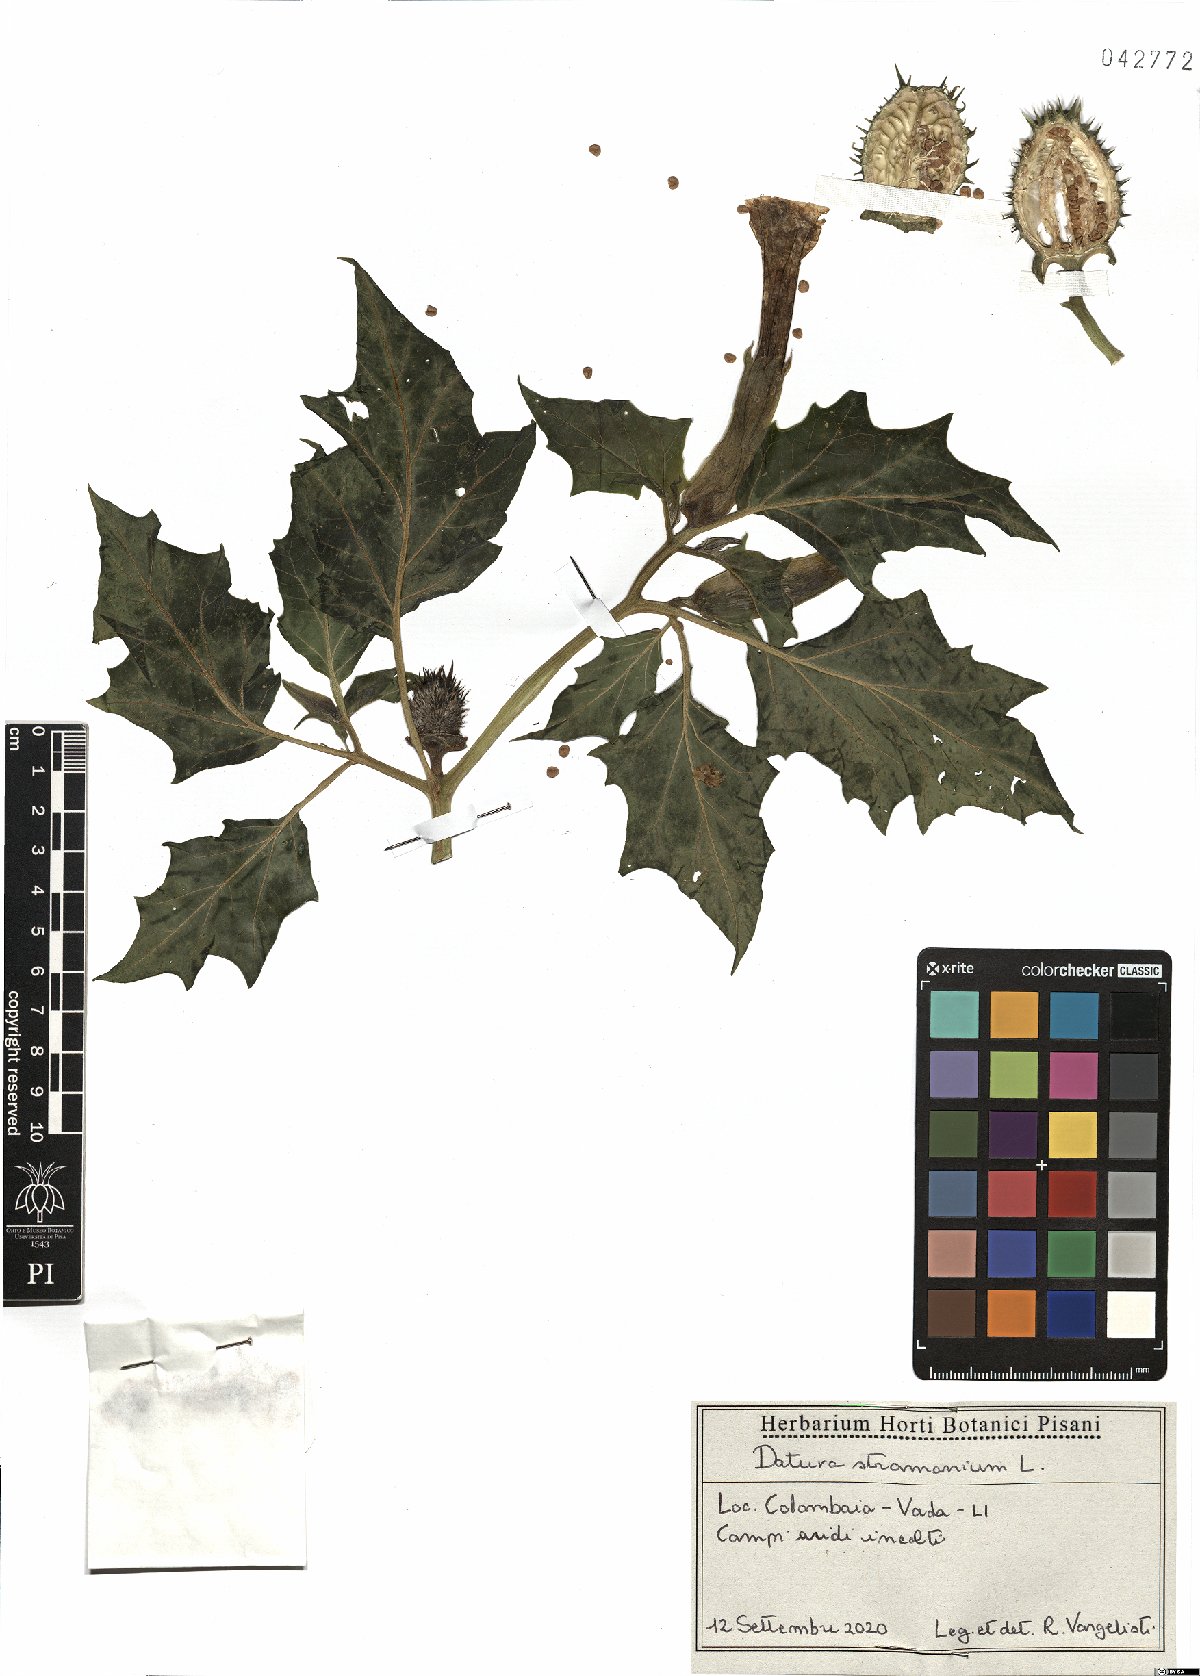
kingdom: Plantae
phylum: Tracheophyta
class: Magnoliopsida
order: Solanales
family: Solanaceae
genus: Datura
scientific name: Datura stramonium
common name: Thorn-apple
